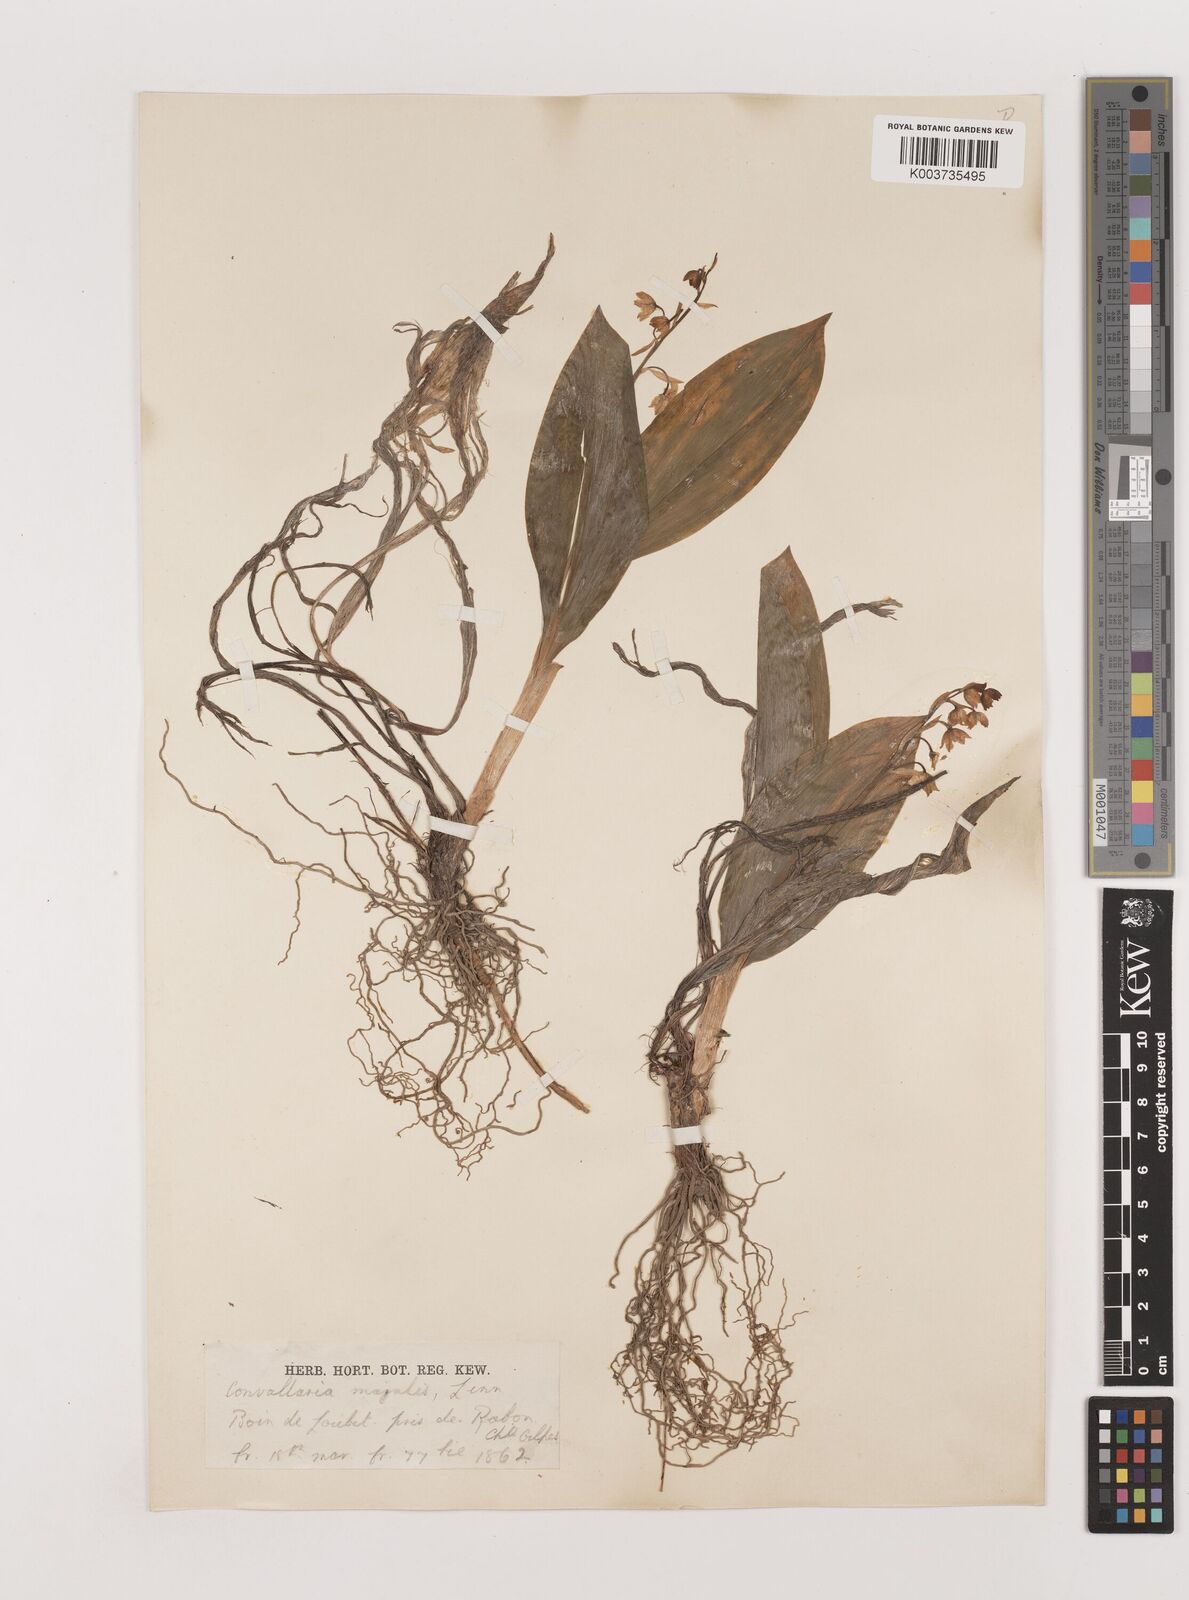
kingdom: Plantae
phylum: Tracheophyta
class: Liliopsida
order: Asparagales
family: Asparagaceae
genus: Convallaria
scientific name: Convallaria majalis
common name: Lily-of-the-valley
